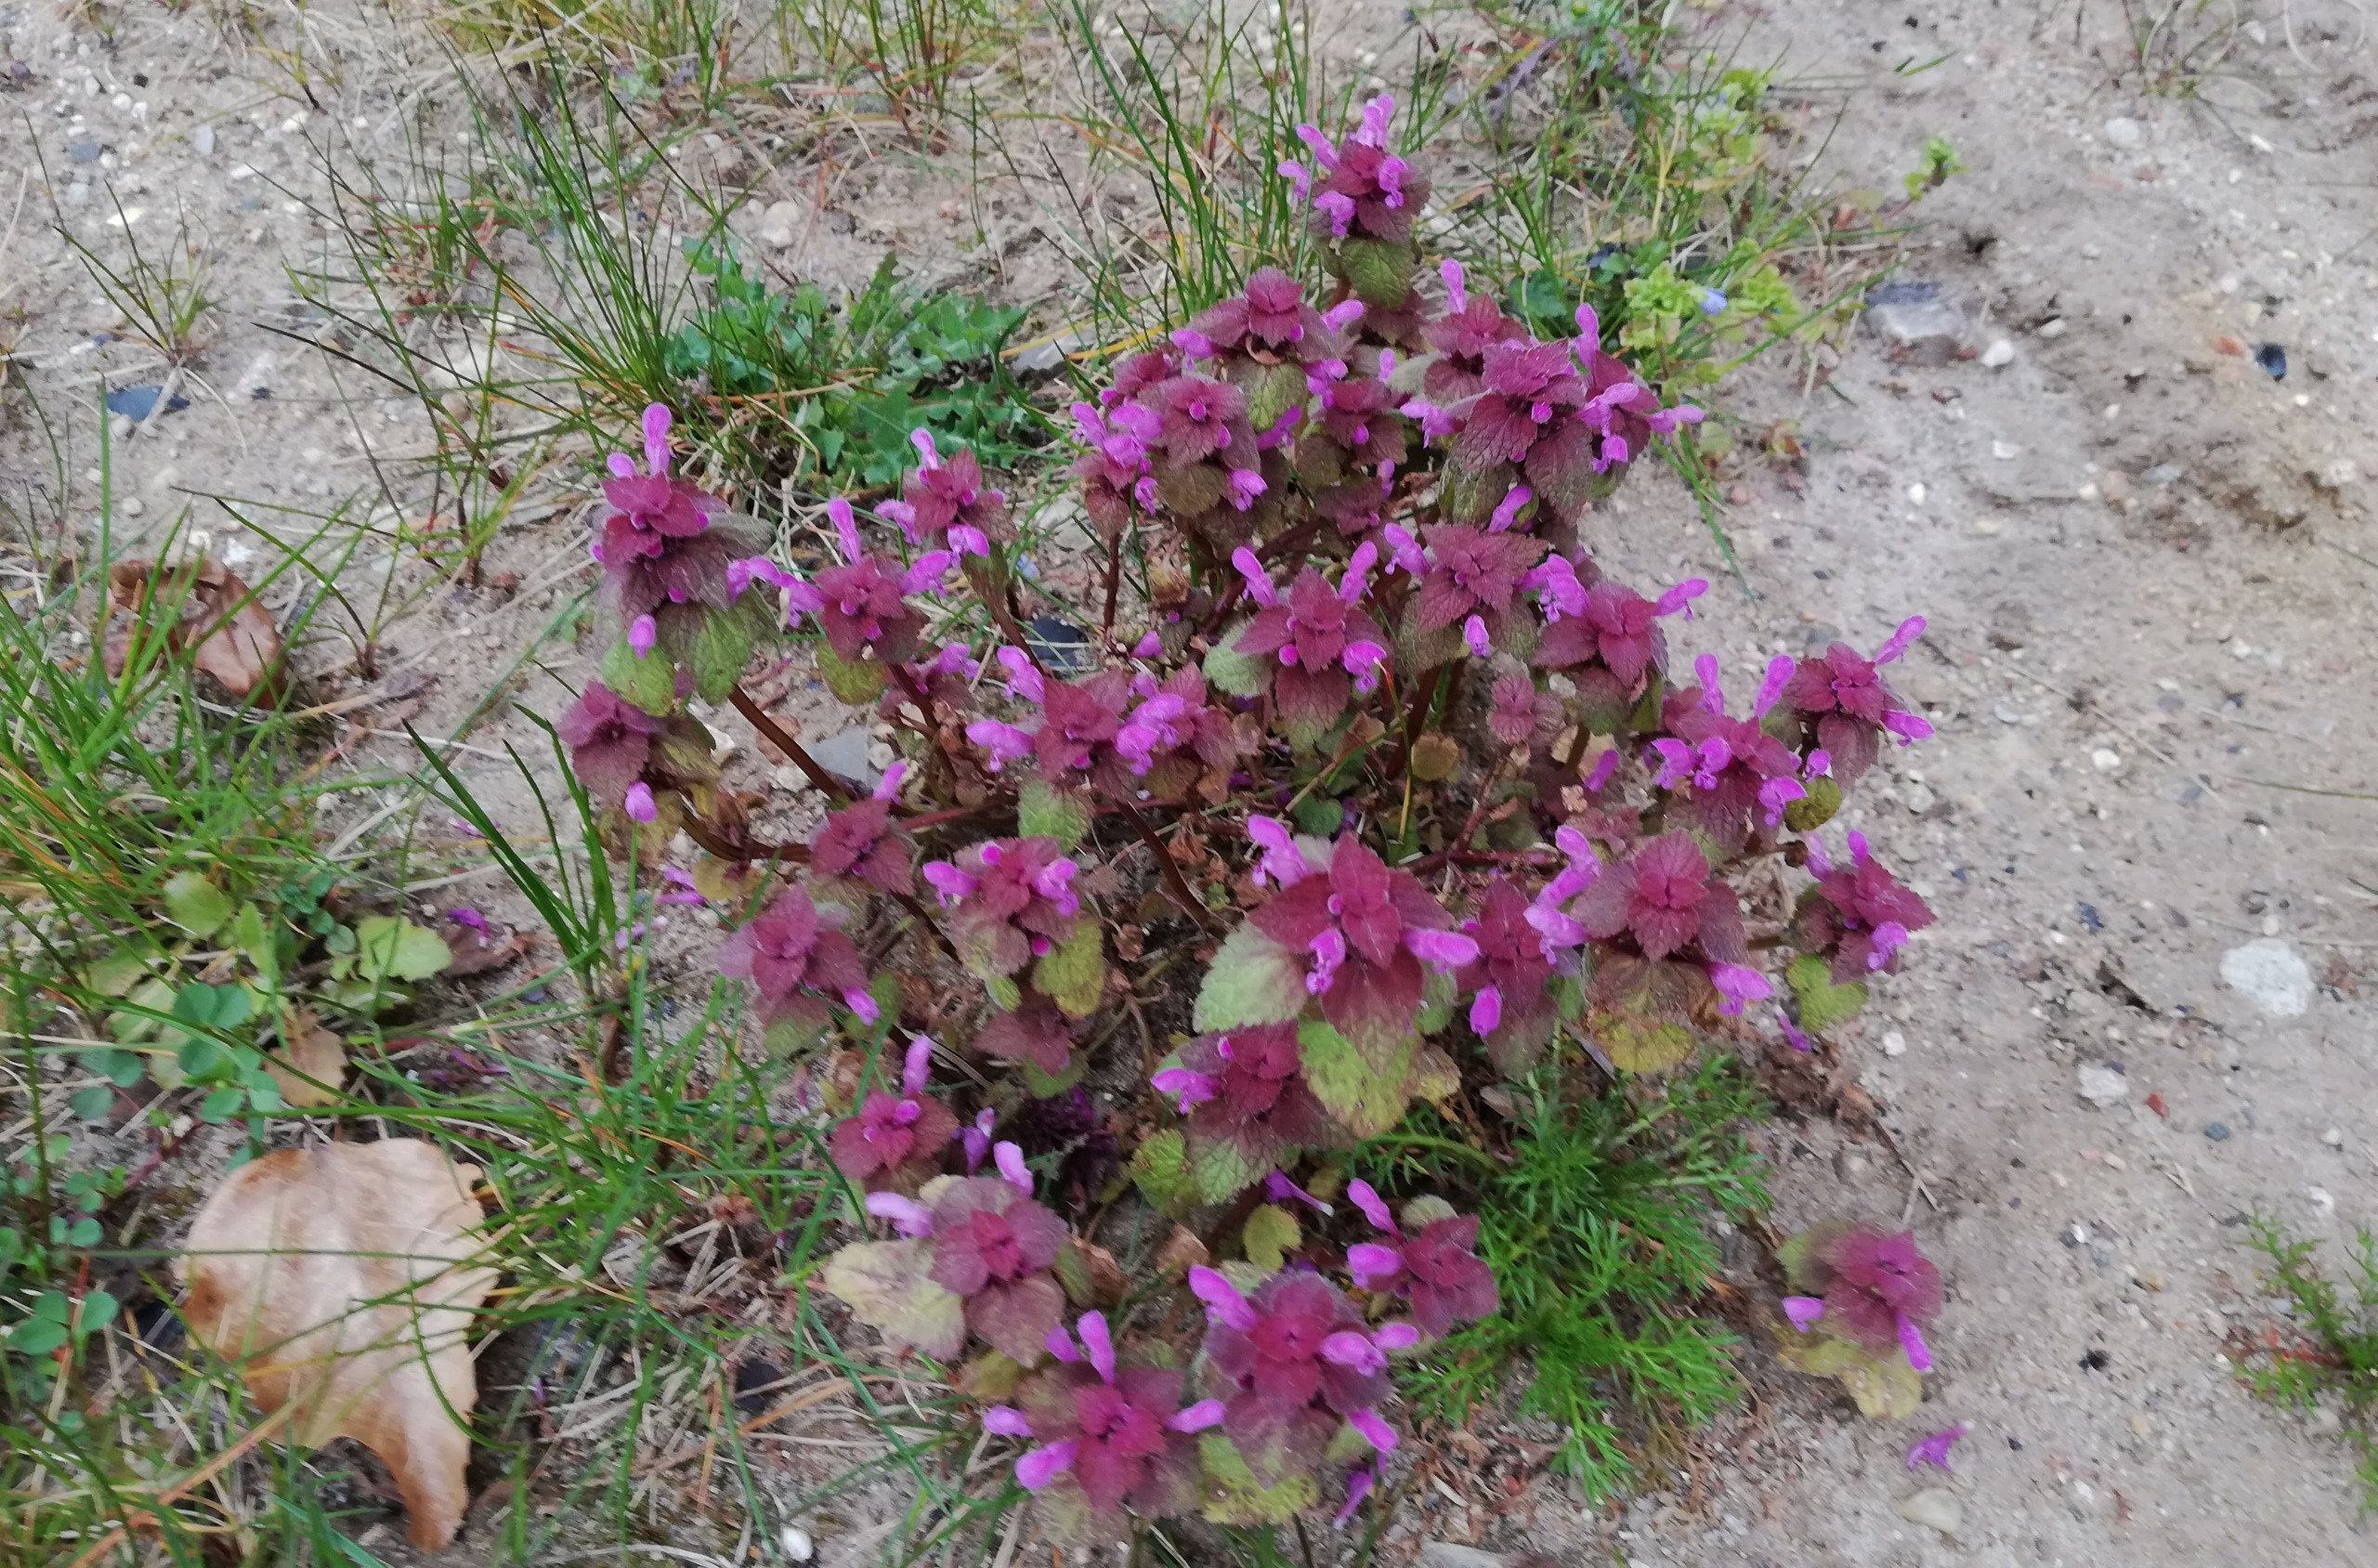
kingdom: Plantae
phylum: Tracheophyta
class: Magnoliopsida
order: Lamiales
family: Lamiaceae
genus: Lamium
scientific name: Lamium purpureum
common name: Rød tvetand
